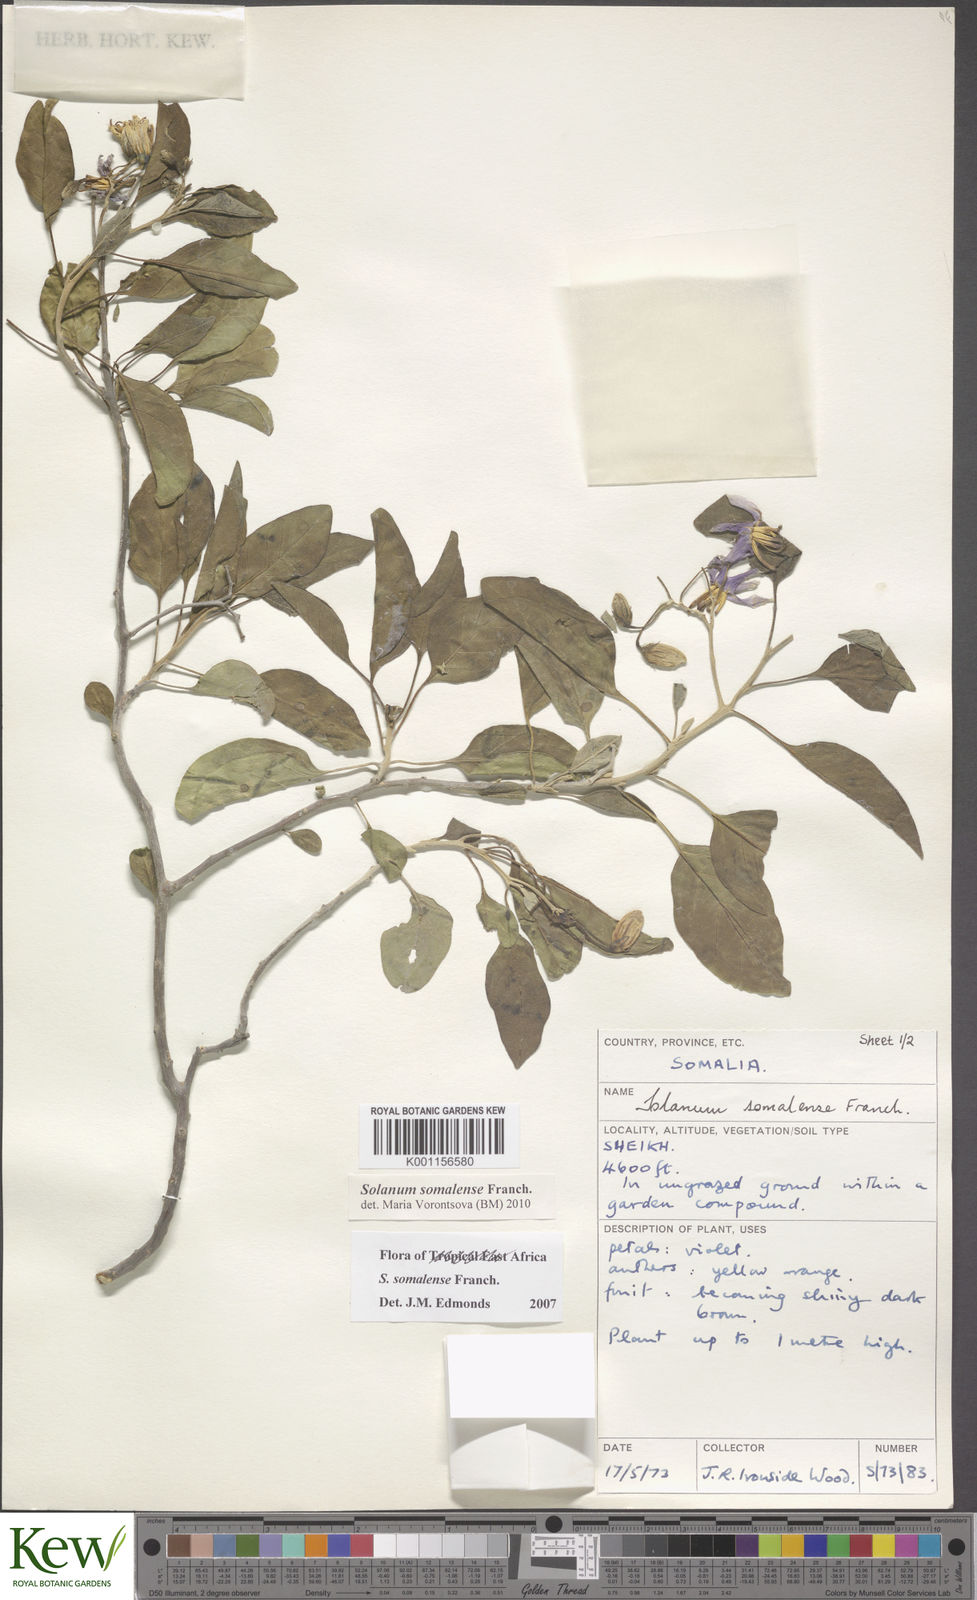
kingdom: Plantae
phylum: Tracheophyta
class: Magnoliopsida
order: Solanales
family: Solanaceae
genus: Solanum
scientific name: Solanum somalense
